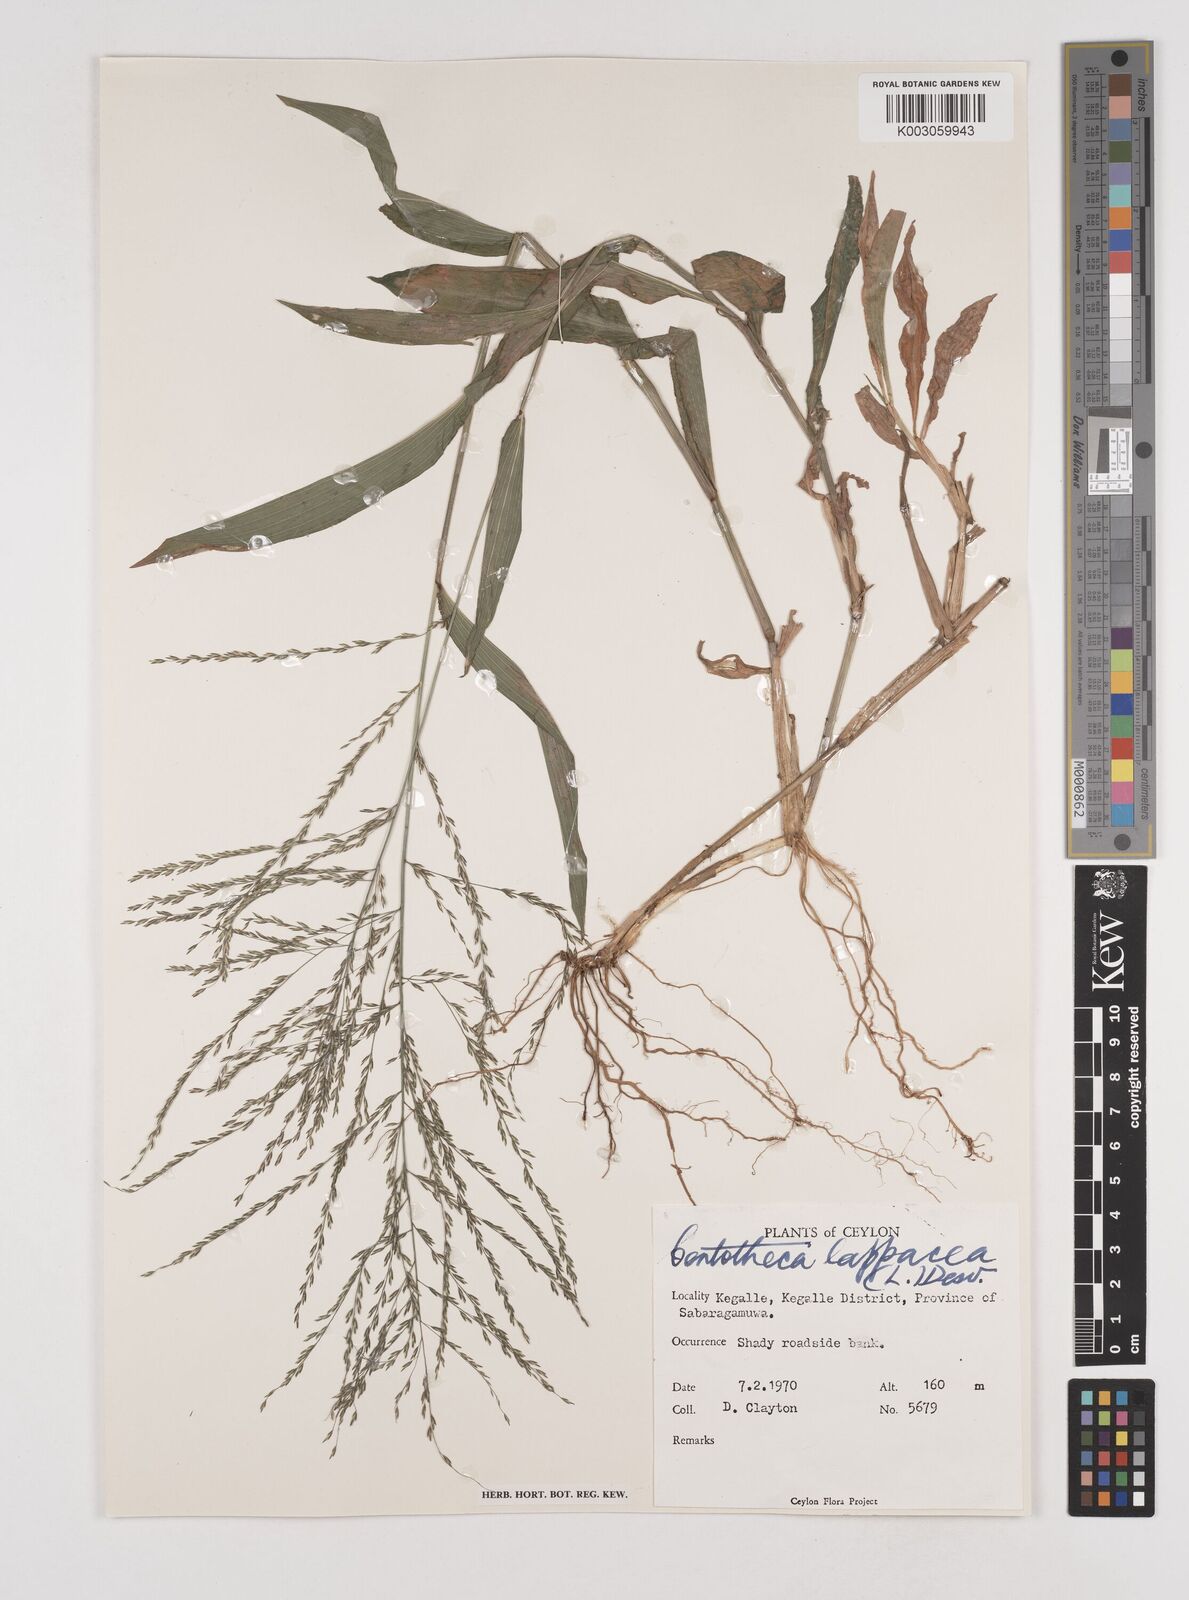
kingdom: Plantae
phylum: Tracheophyta
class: Liliopsida
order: Poales
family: Poaceae
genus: Centotheca
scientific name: Centotheca lappacea
